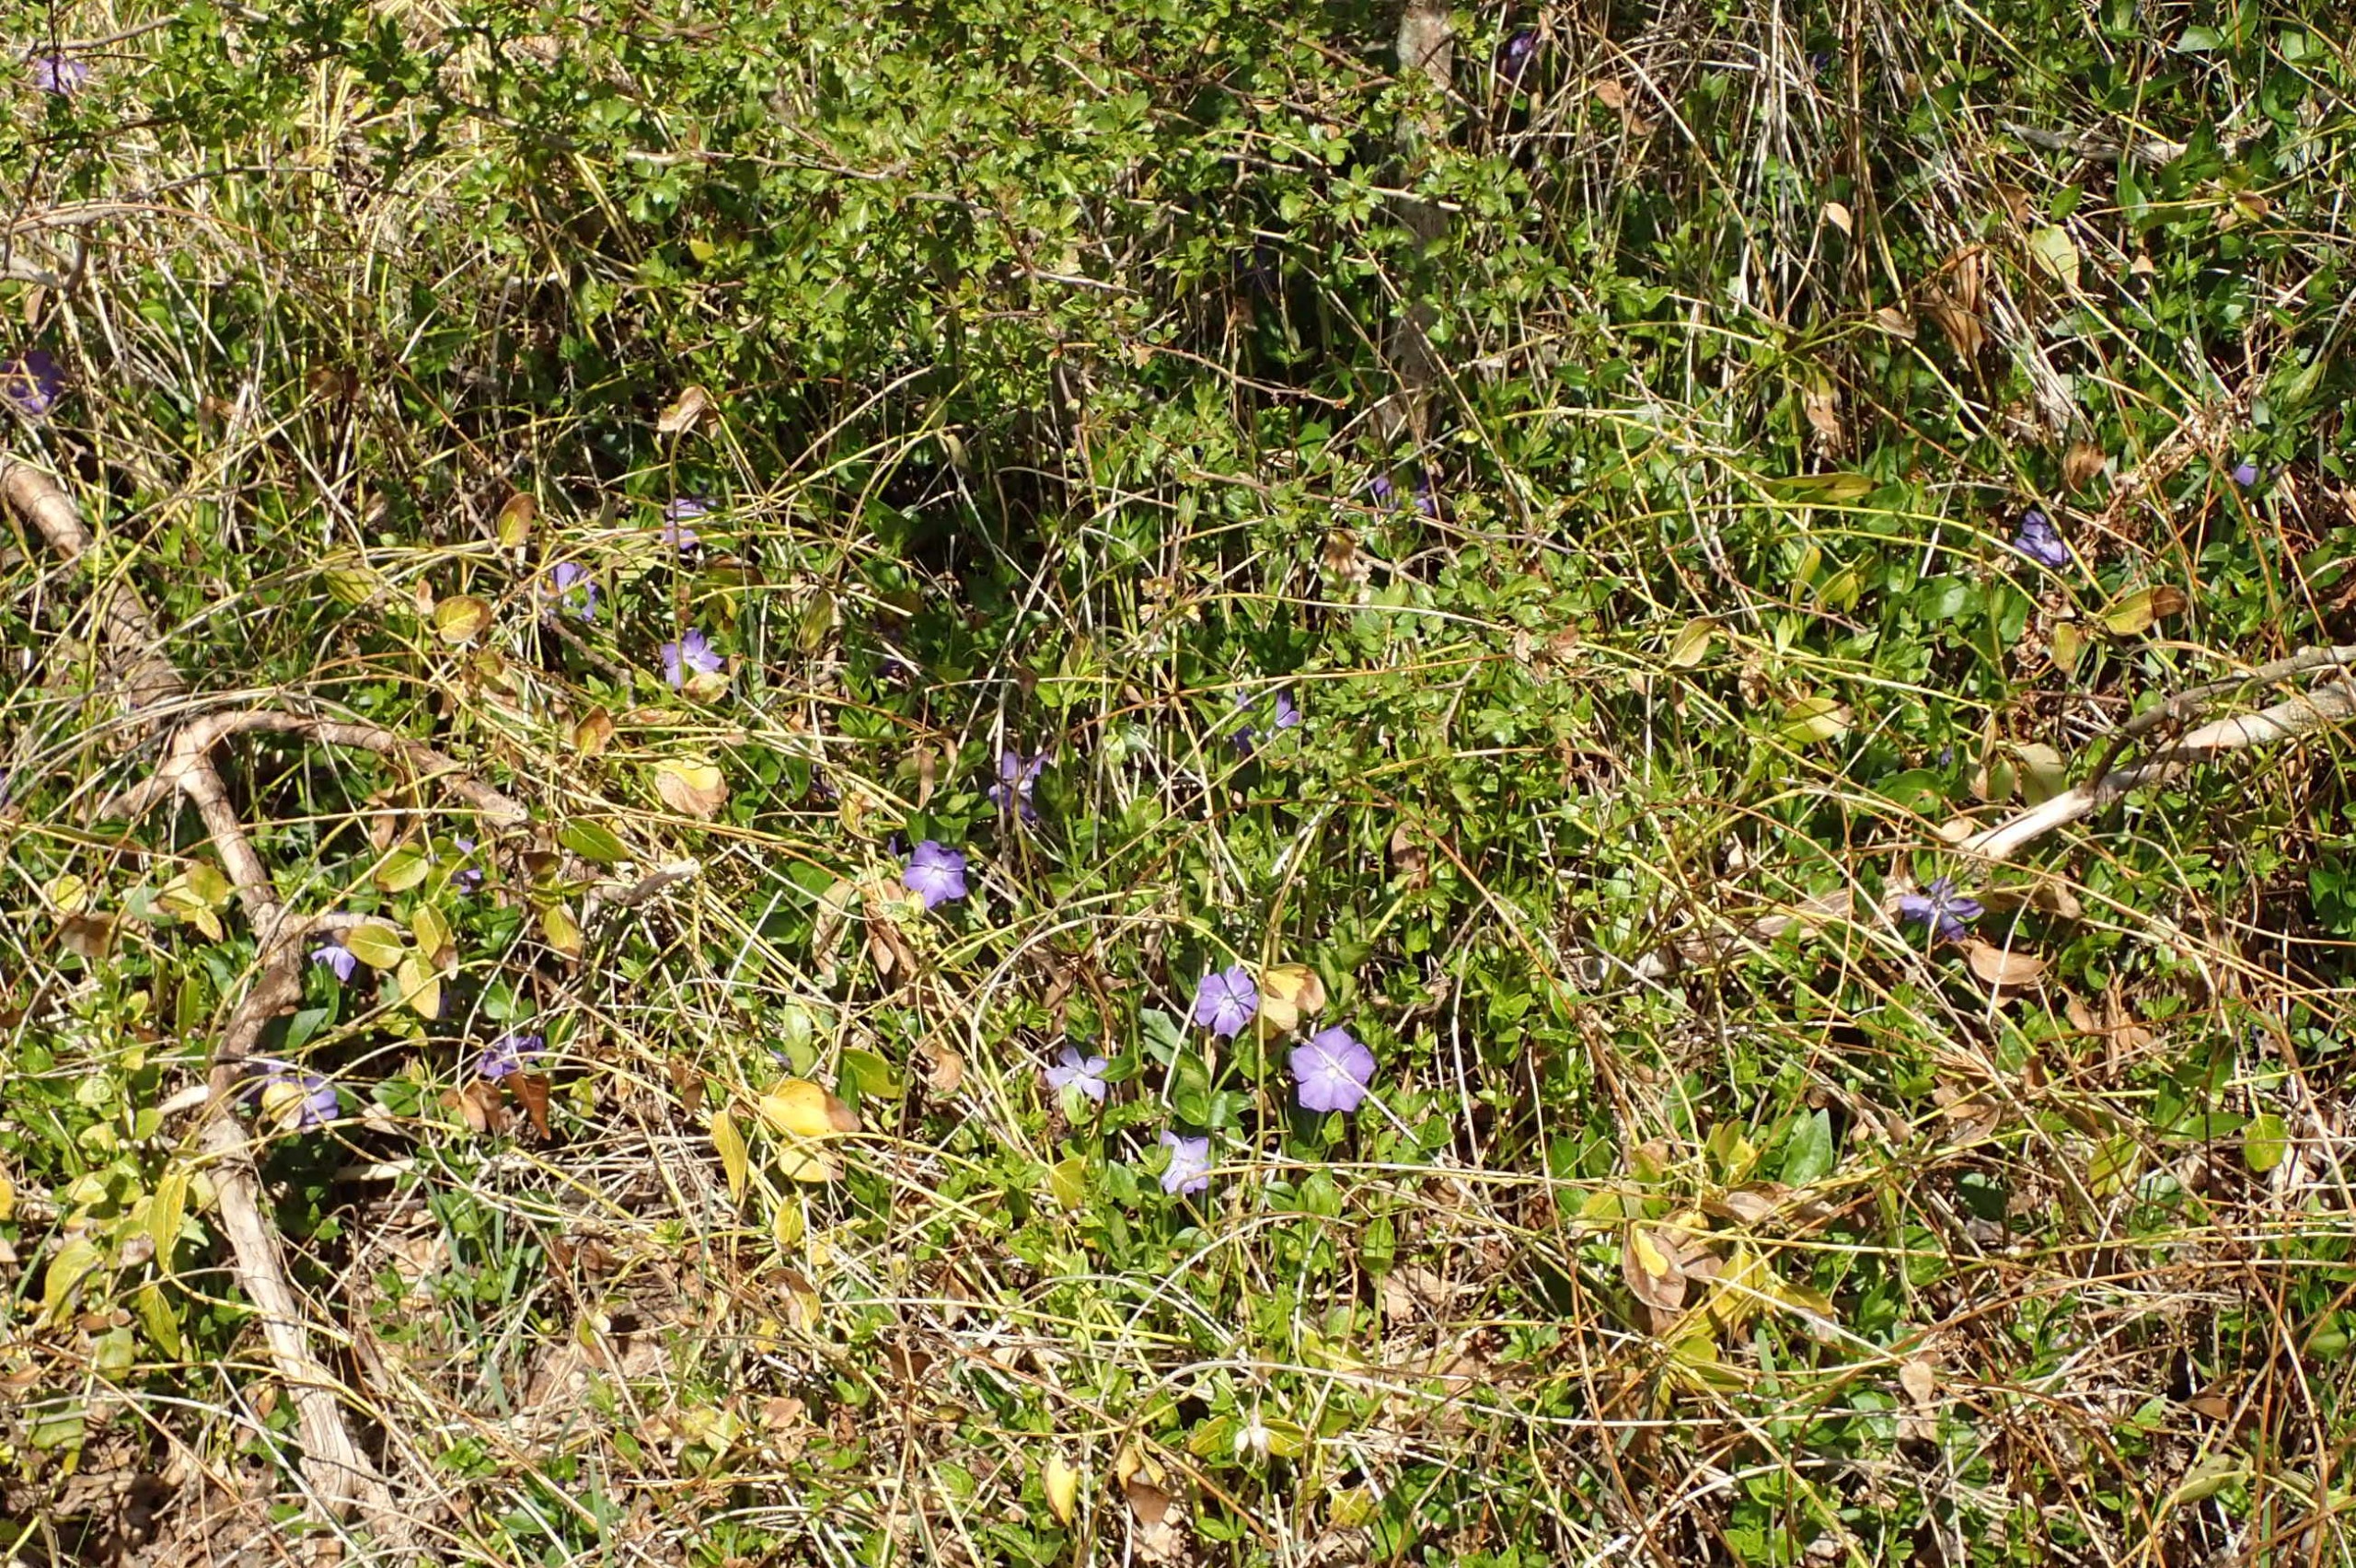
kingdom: Plantae
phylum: Tracheophyta
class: Magnoliopsida
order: Gentianales
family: Apocynaceae
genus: Vinca
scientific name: Vinca major
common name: Stor singrøn
